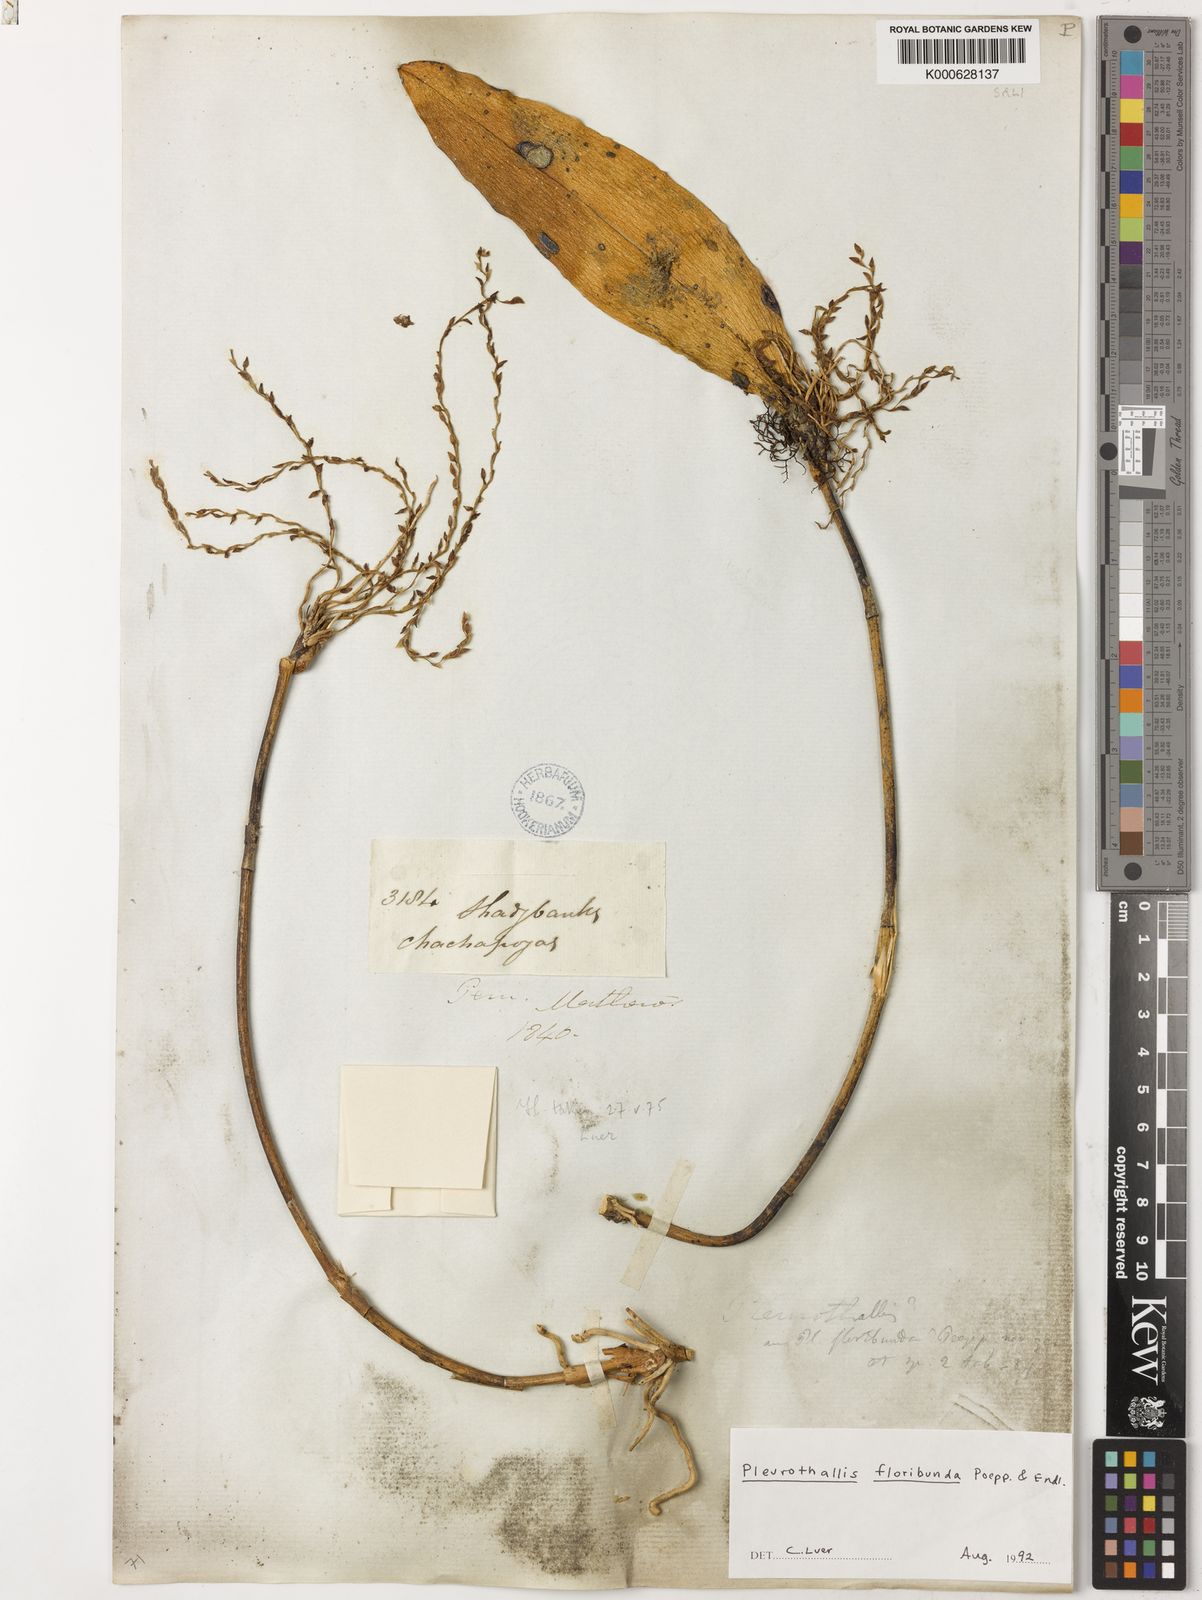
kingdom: Plantae
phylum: Tracheophyta
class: Liliopsida
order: Asparagales
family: Orchidaceae
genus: Pleurothallis
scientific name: Pleurothallis
